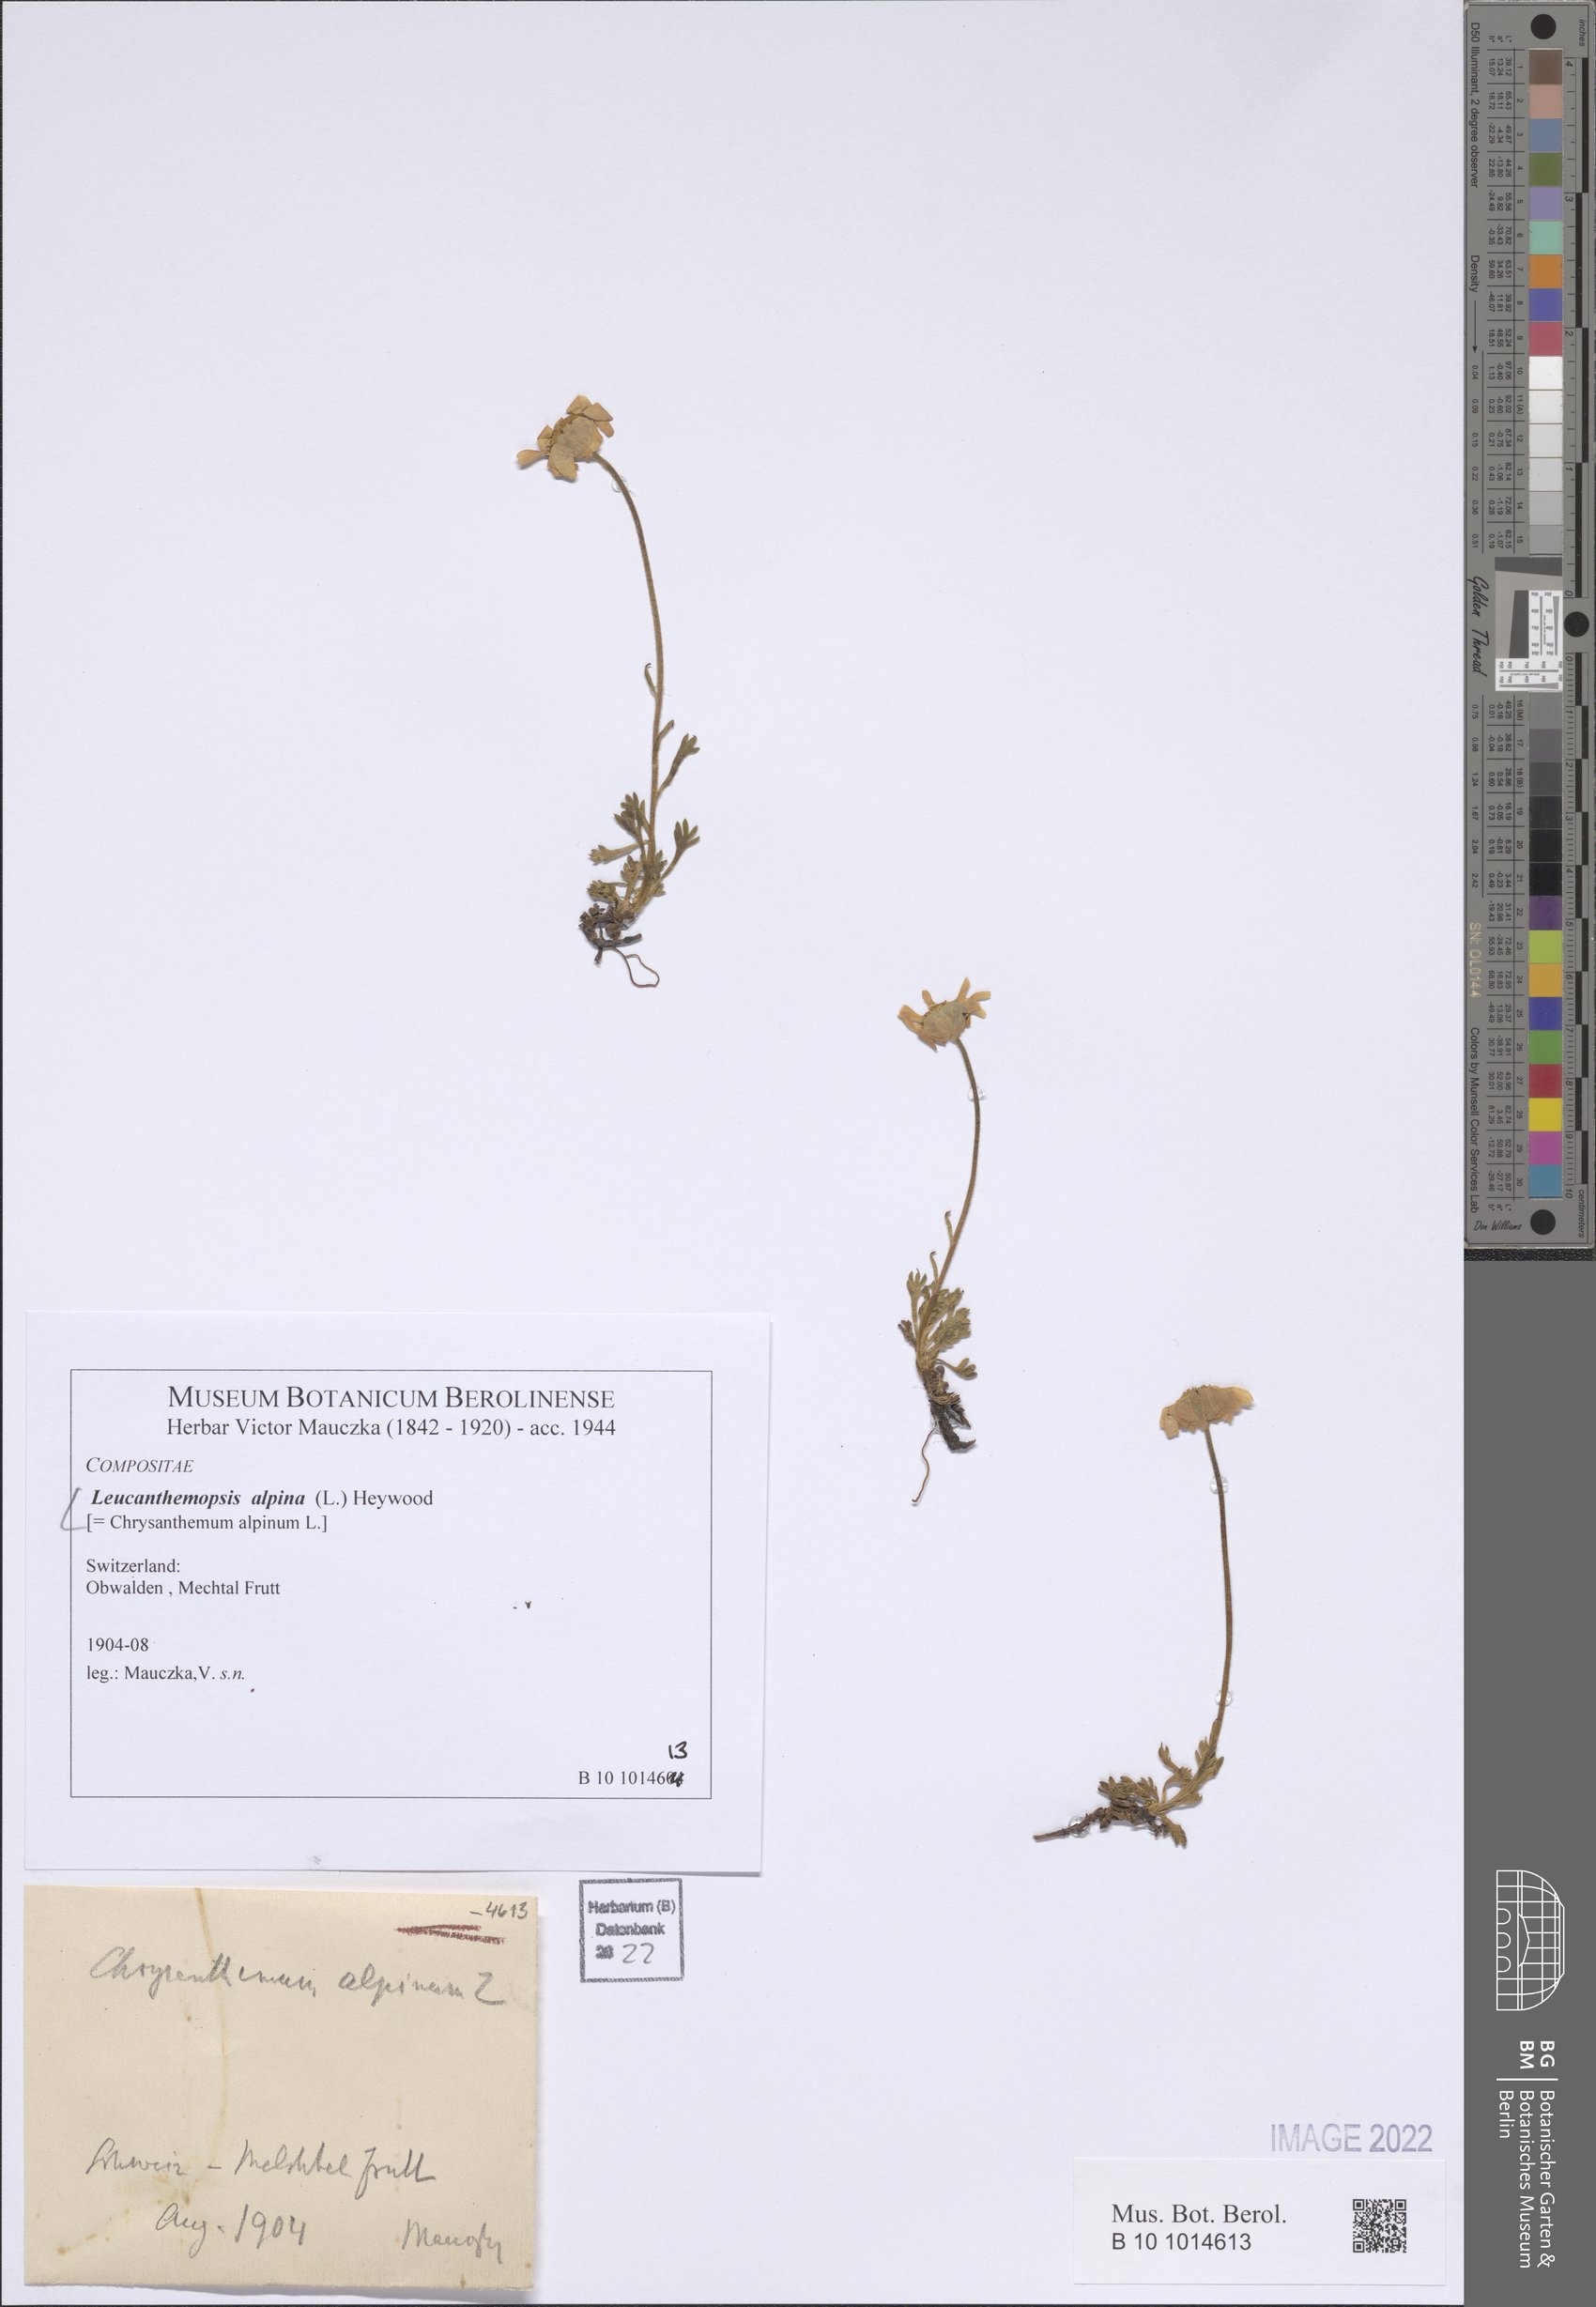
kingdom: Plantae
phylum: Tracheophyta
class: Magnoliopsida
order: Asterales
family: Asteraceae
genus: Leucanthemopsis
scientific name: Leucanthemopsis alpina
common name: Alpine moon daisy
